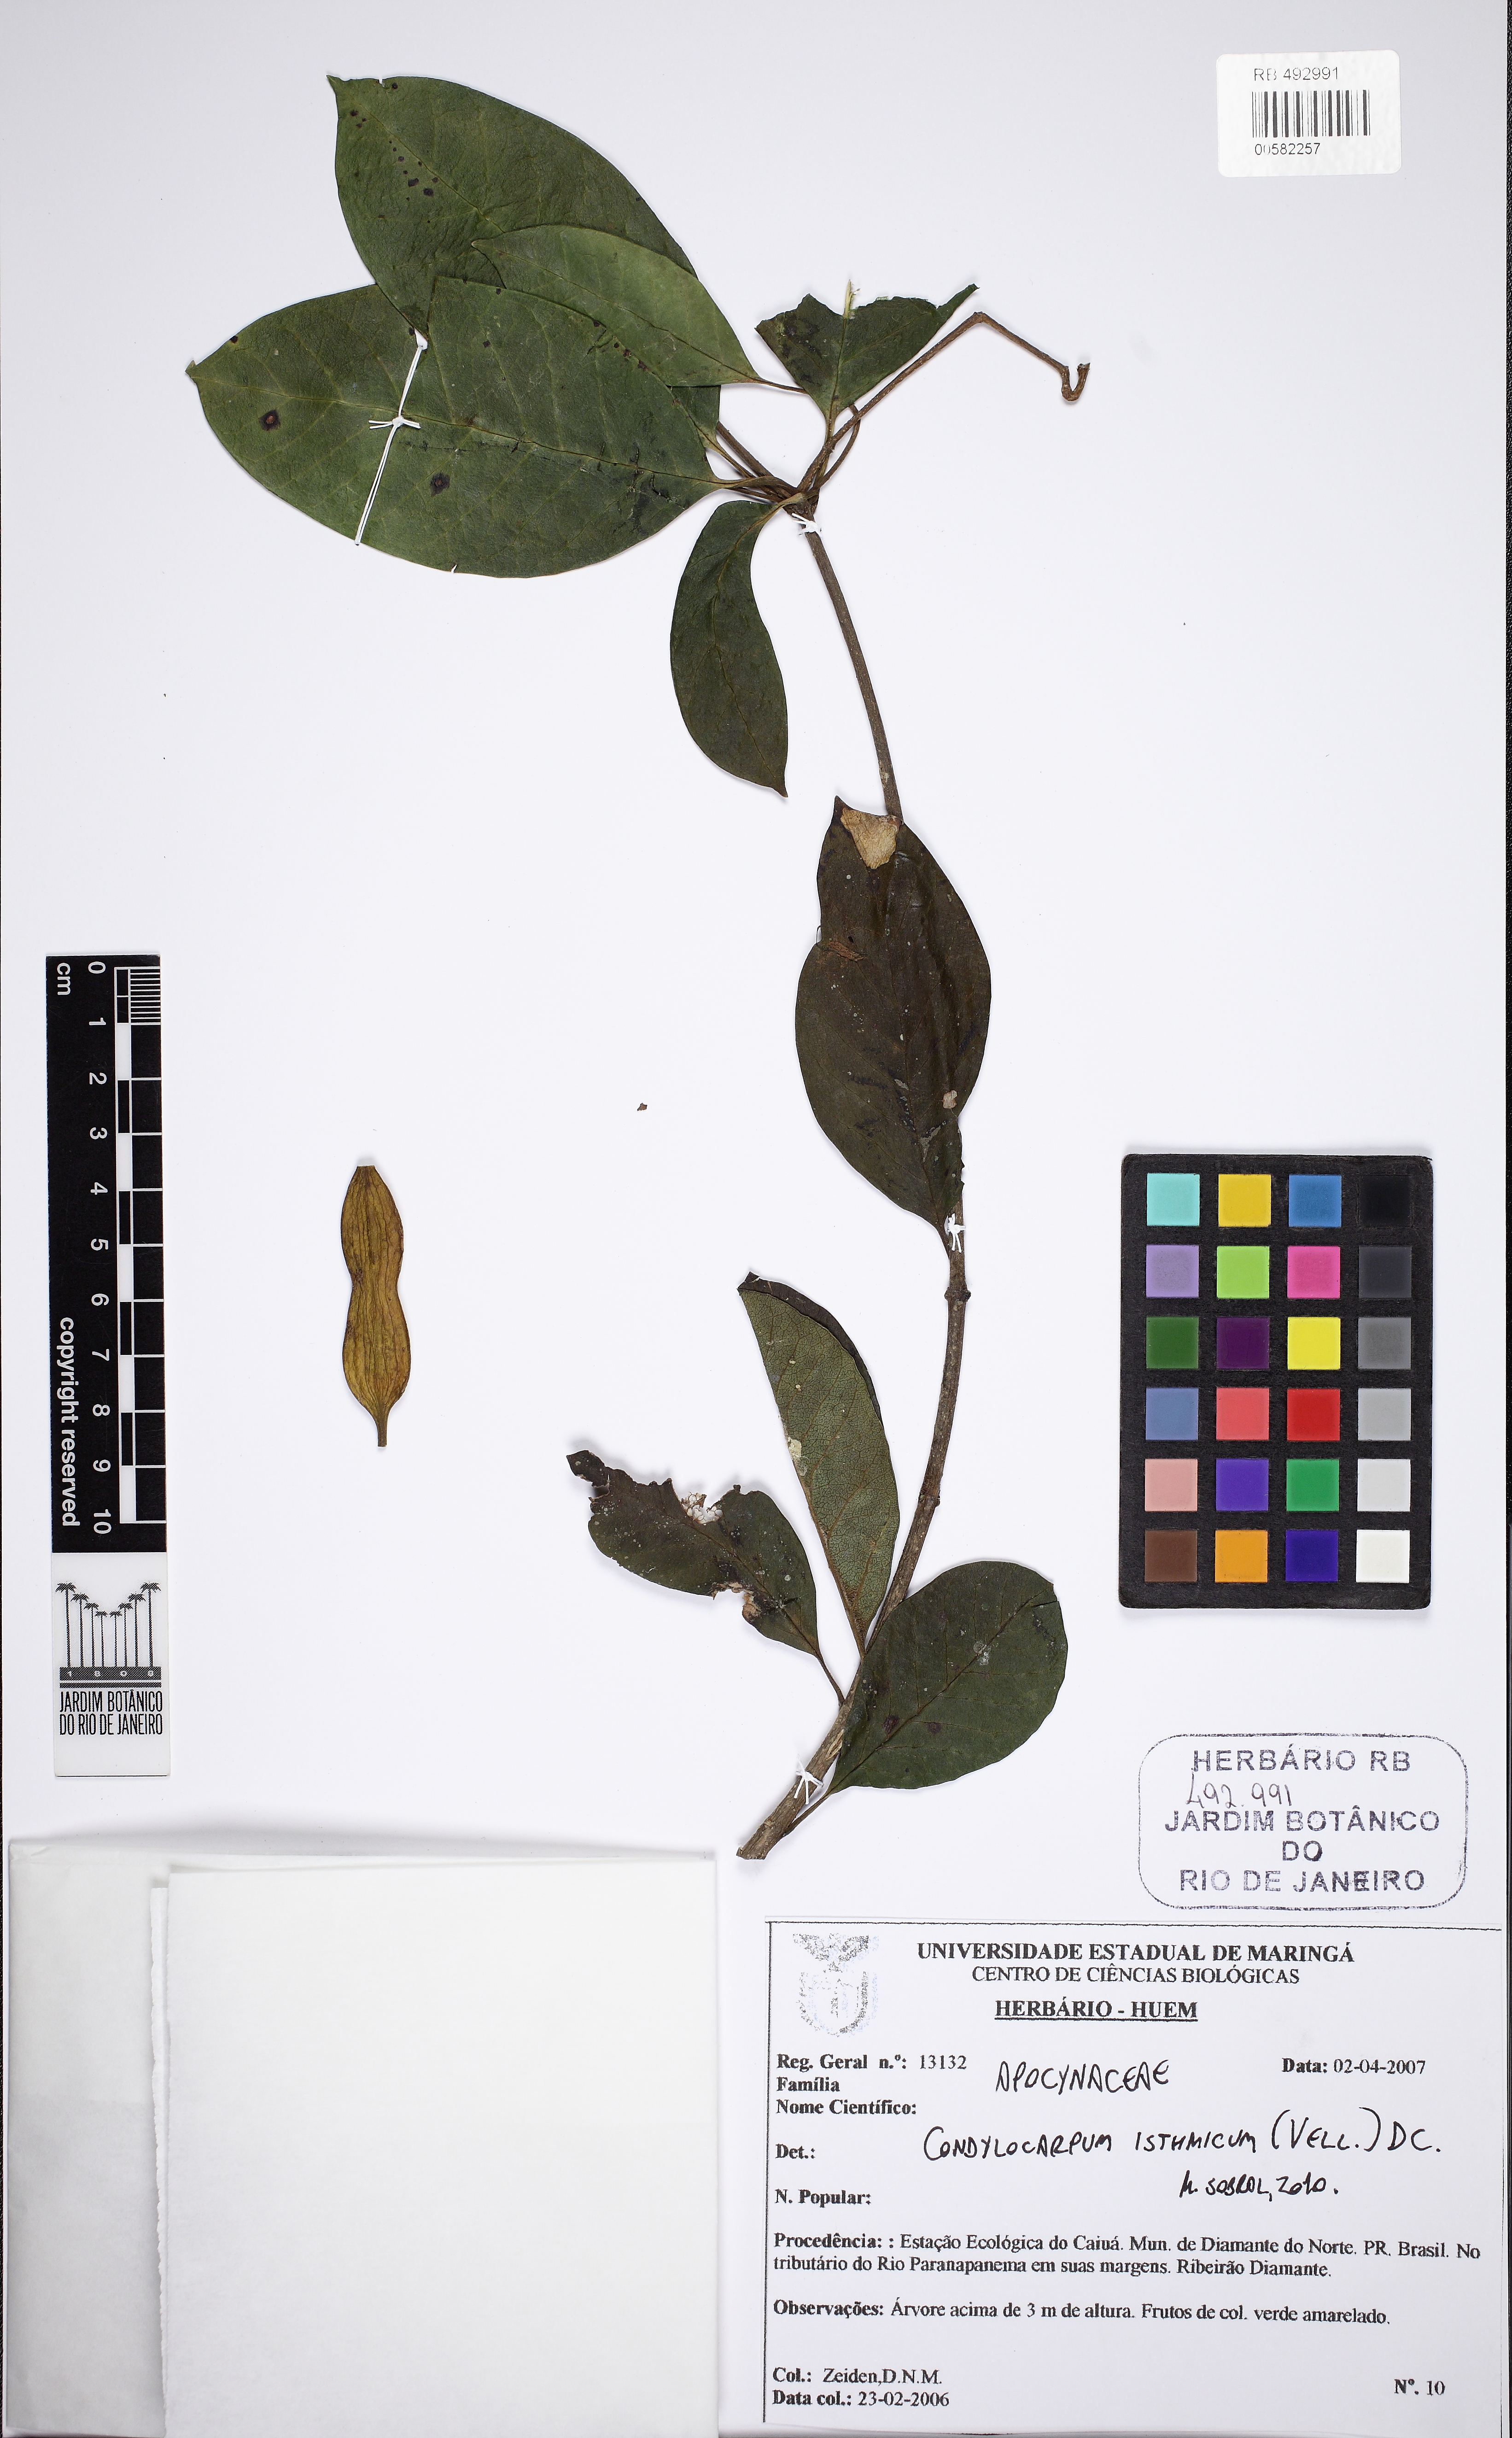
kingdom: Plantae
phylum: Tracheophyta
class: Magnoliopsida
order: Gentianales
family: Apocynaceae
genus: Condylocarpon
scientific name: Condylocarpon isthmicum
